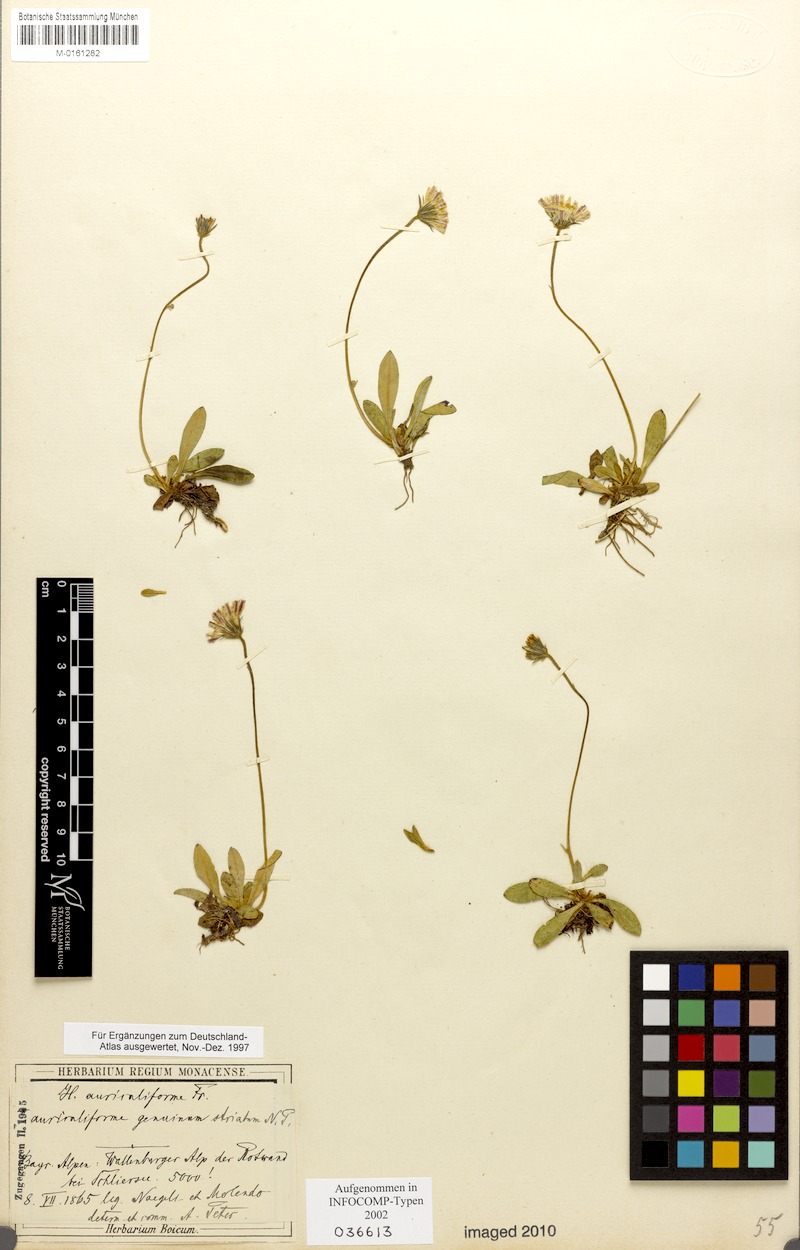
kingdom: Plantae
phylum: Tracheophyta
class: Magnoliopsida
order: Asterales
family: Asteraceae
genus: Pilosella
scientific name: Pilosella schultesii
